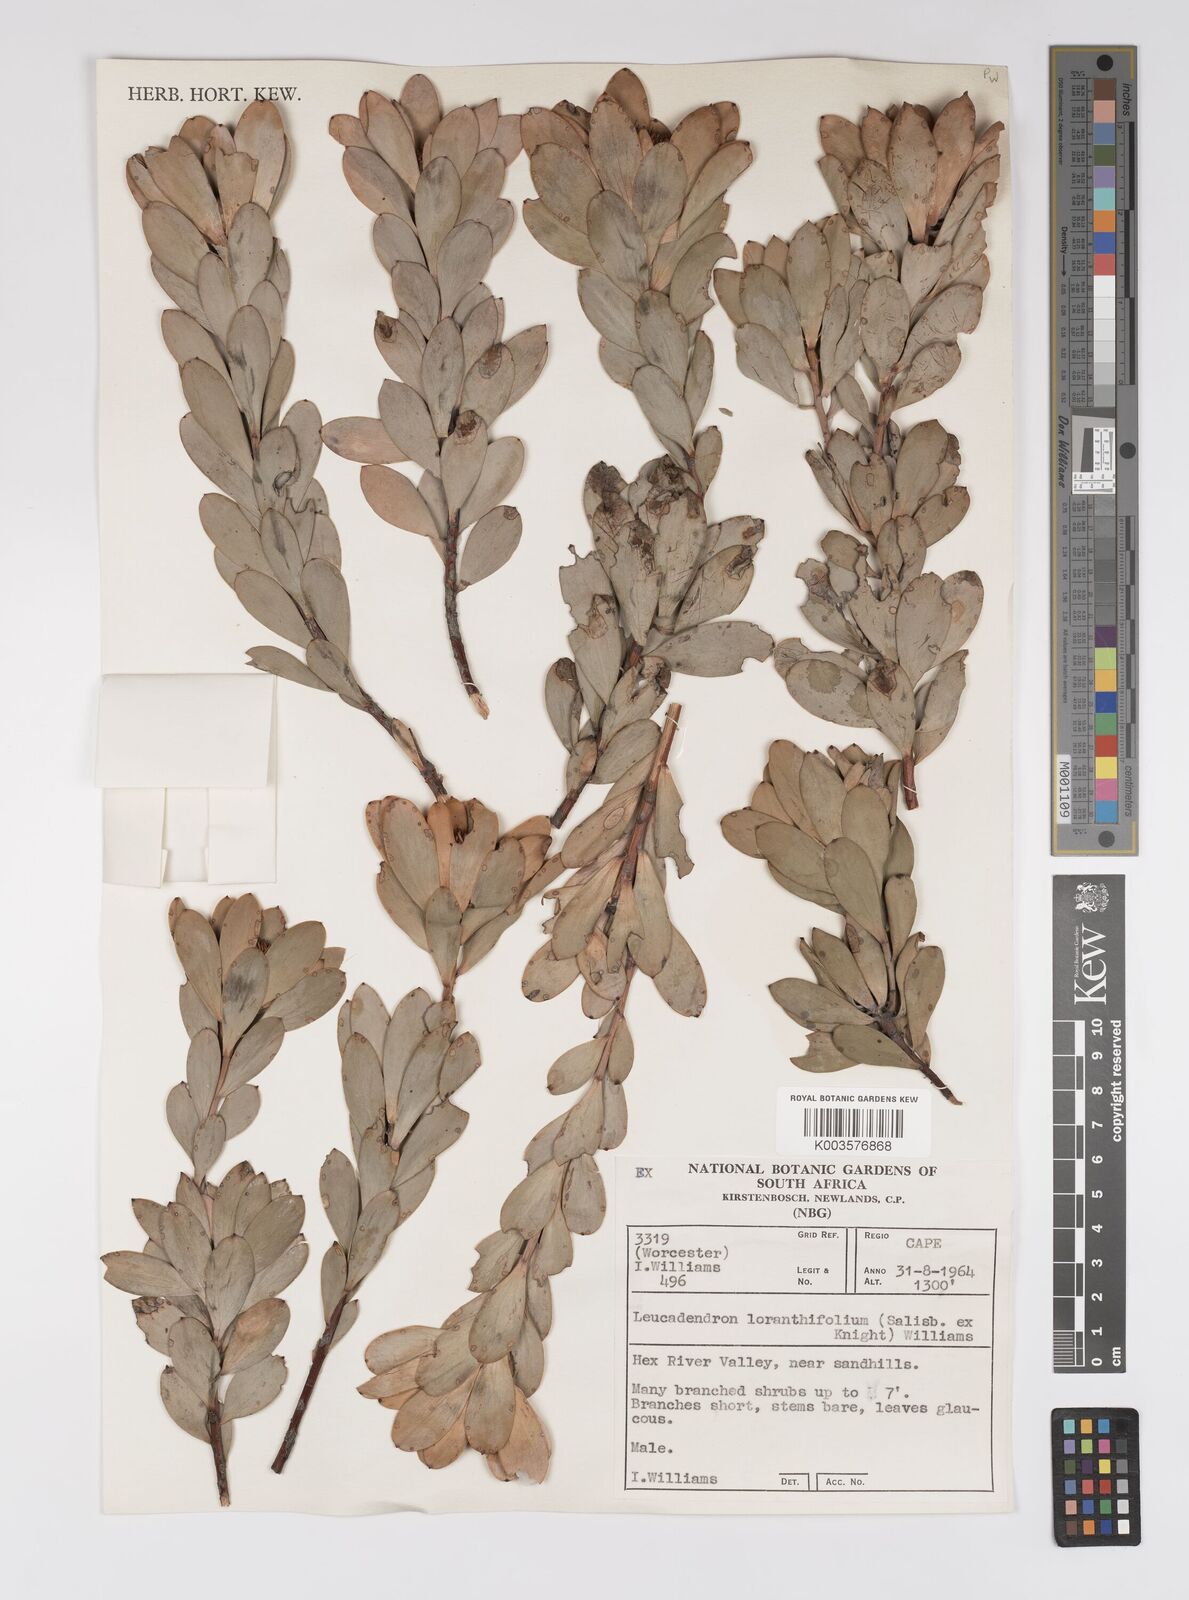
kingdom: Plantae
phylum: Tracheophyta
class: Magnoliopsida
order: Proteales
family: Proteaceae
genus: Leucadendron
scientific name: Leucadendron loranthifolium
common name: Green-flower sunbush
